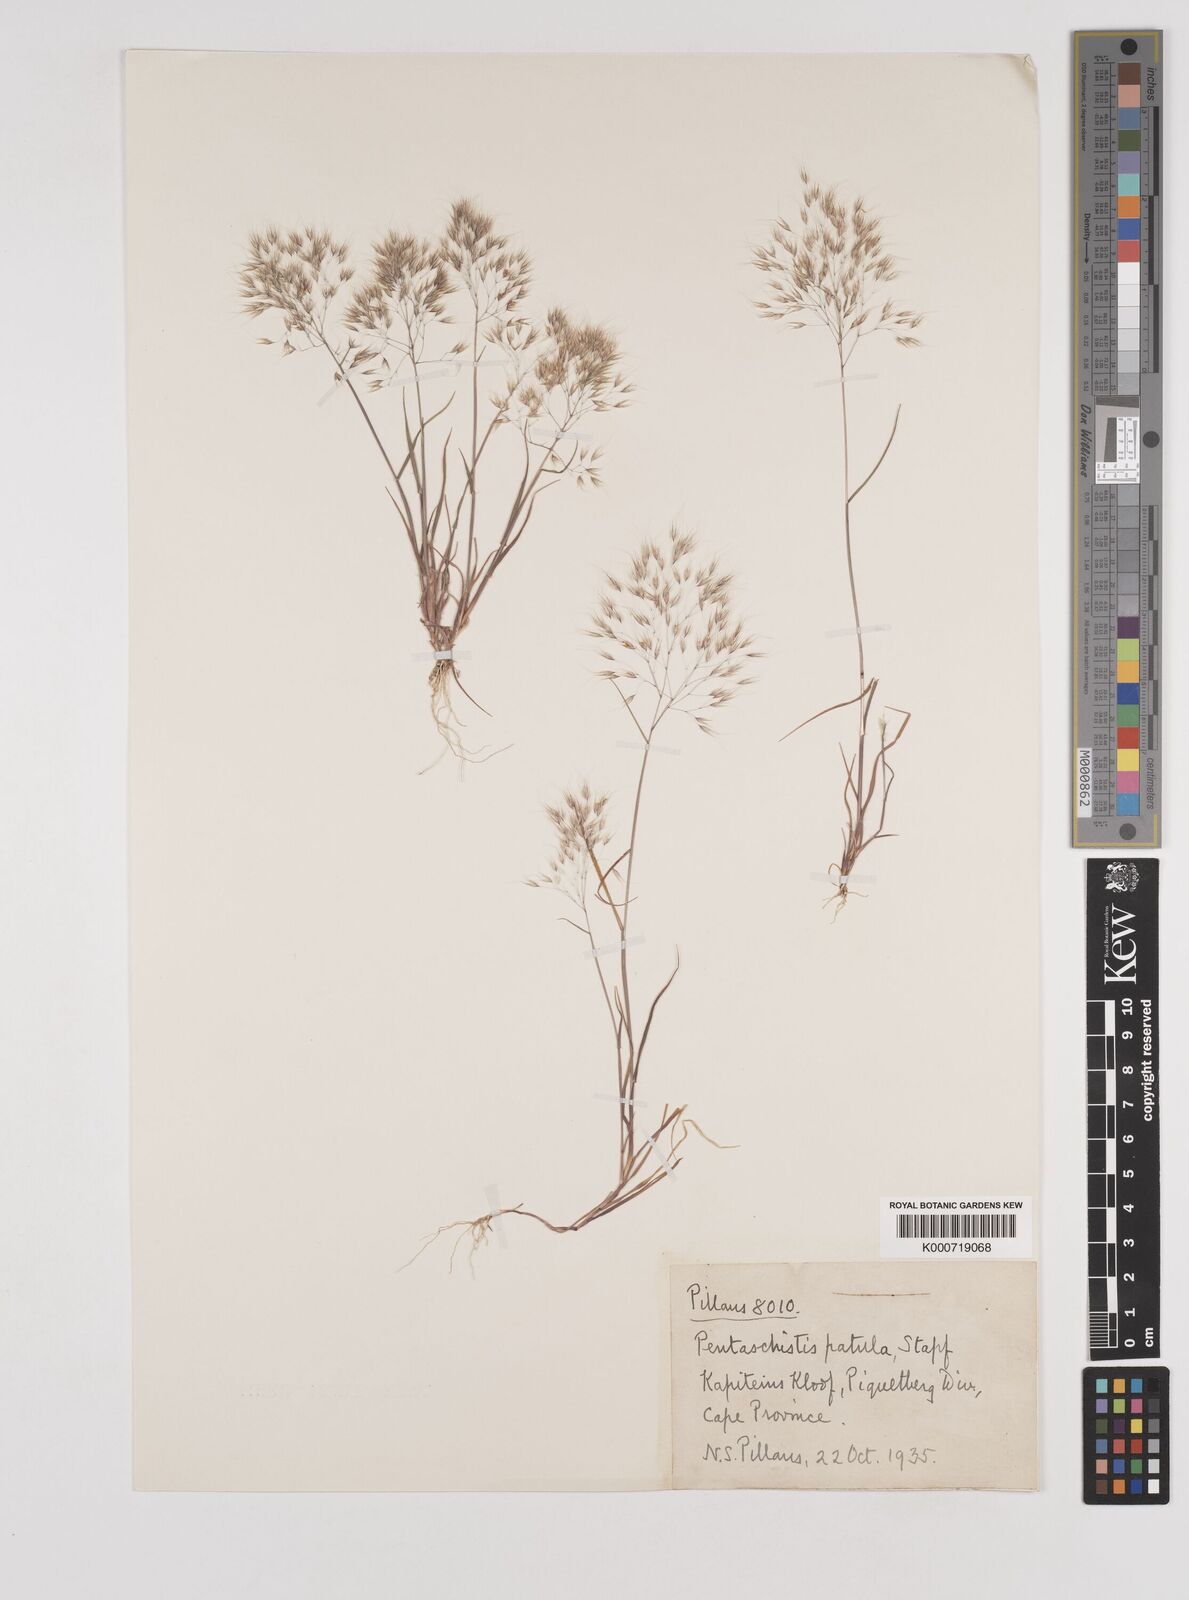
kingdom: Plantae
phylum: Tracheophyta
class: Liliopsida
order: Poales
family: Poaceae
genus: Pentameris
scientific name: Pentameris patula
